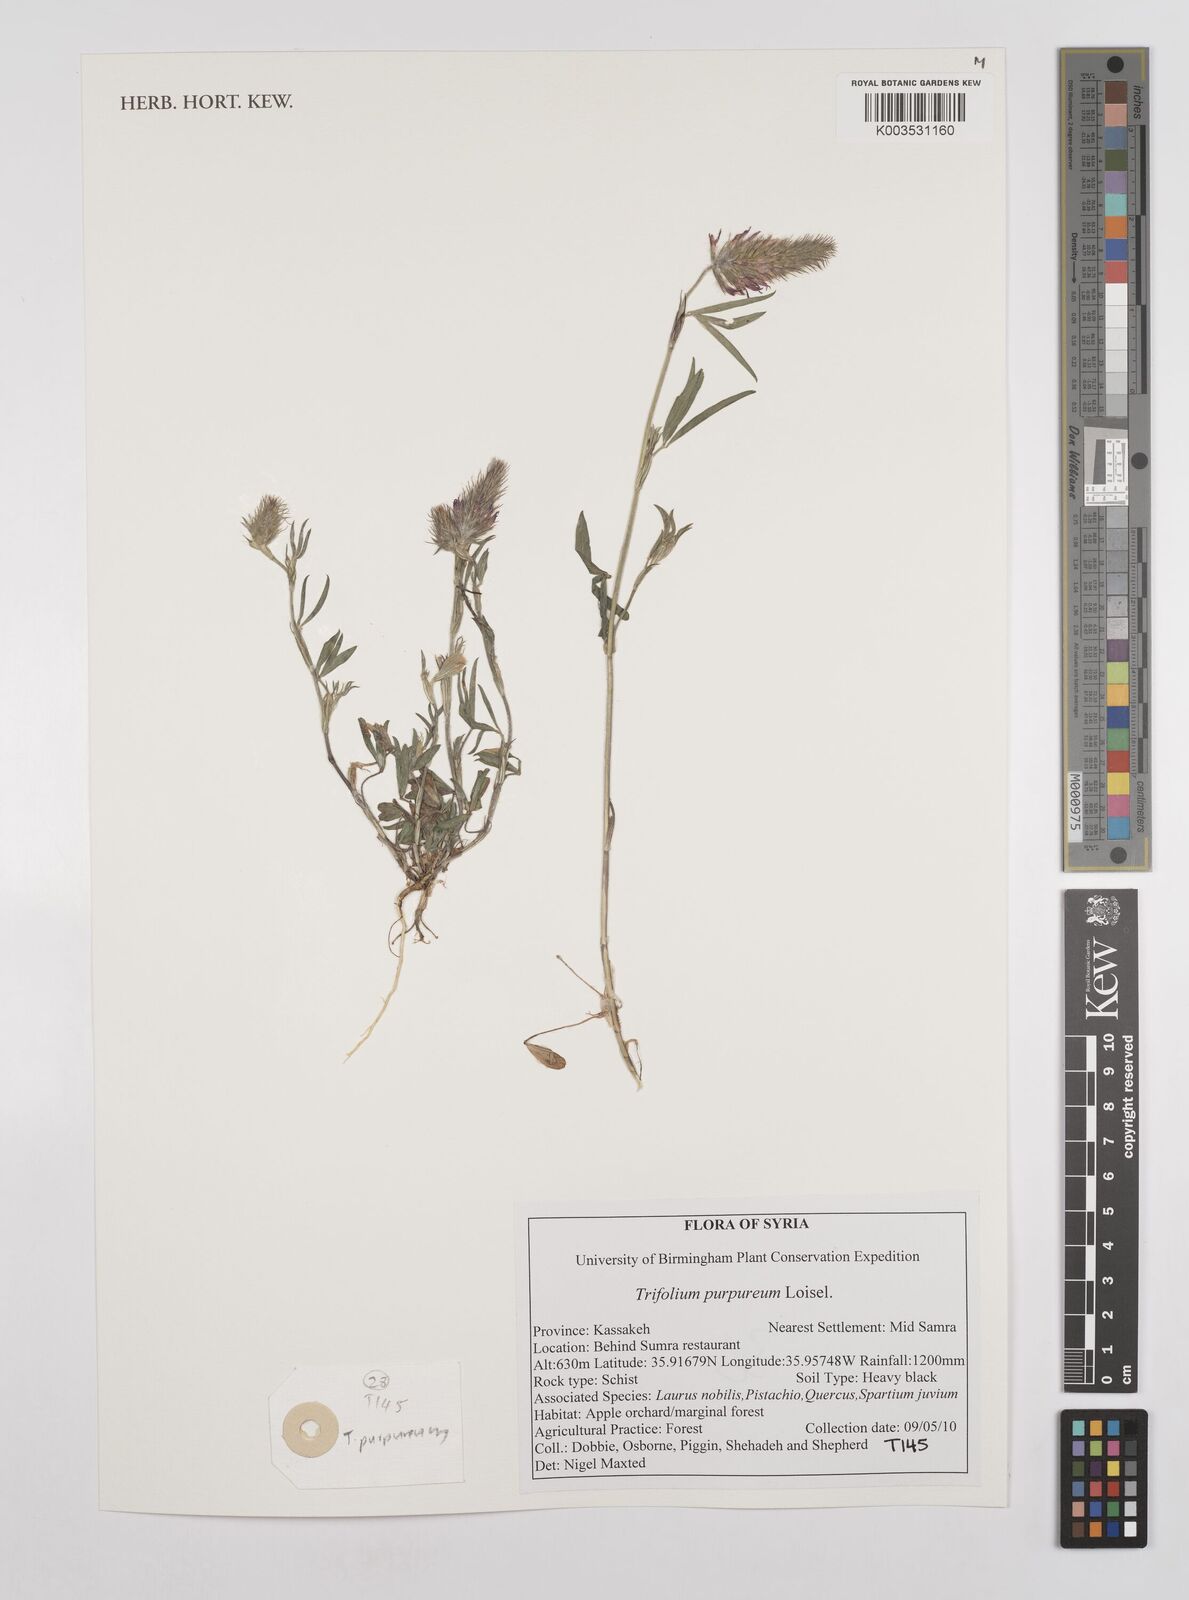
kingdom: Plantae
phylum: Tracheophyta
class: Magnoliopsida
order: Fabales
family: Fabaceae
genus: Trifolium
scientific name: Trifolium purpureum
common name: Purple clover
